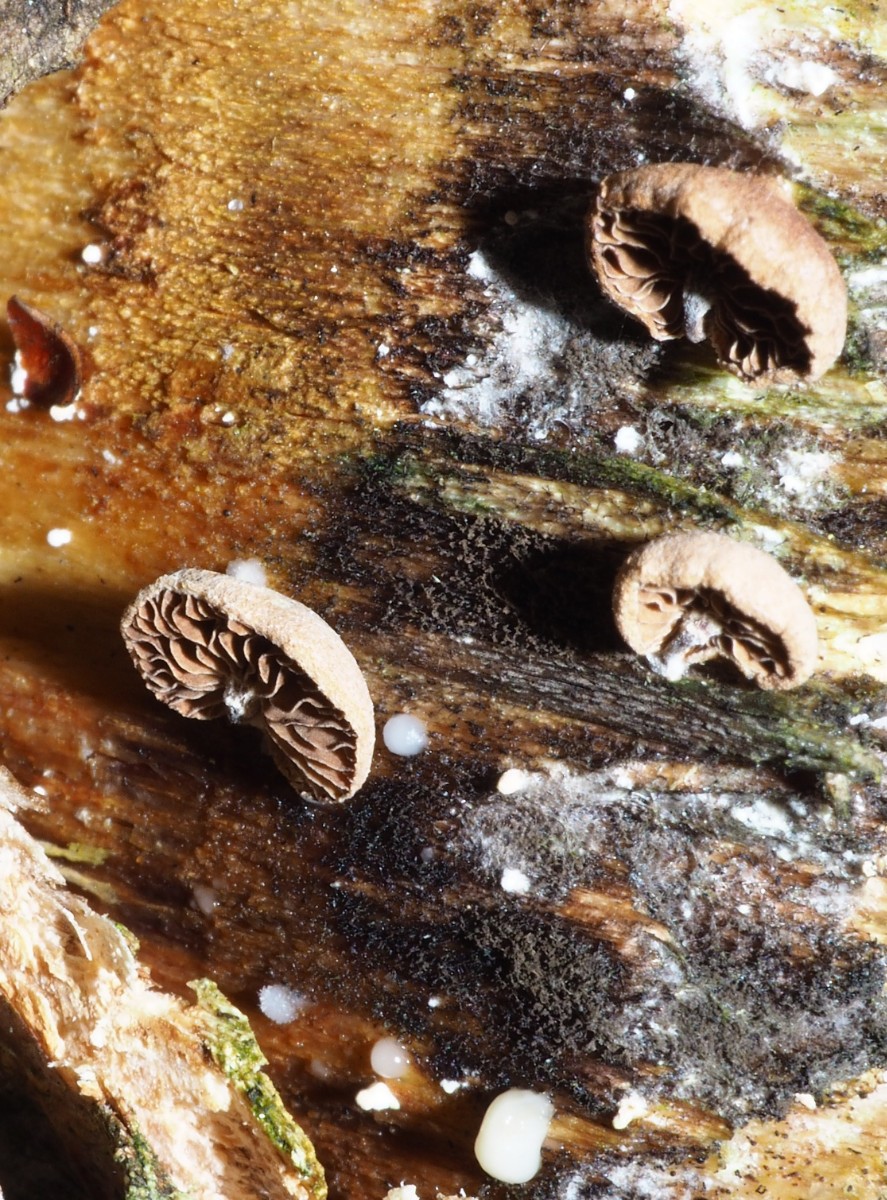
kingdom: Fungi
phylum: Basidiomycota
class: Agaricomycetes
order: Agaricales
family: Strophariaceae
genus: Deconica
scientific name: Deconica horizontalis
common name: ved-stråhat
